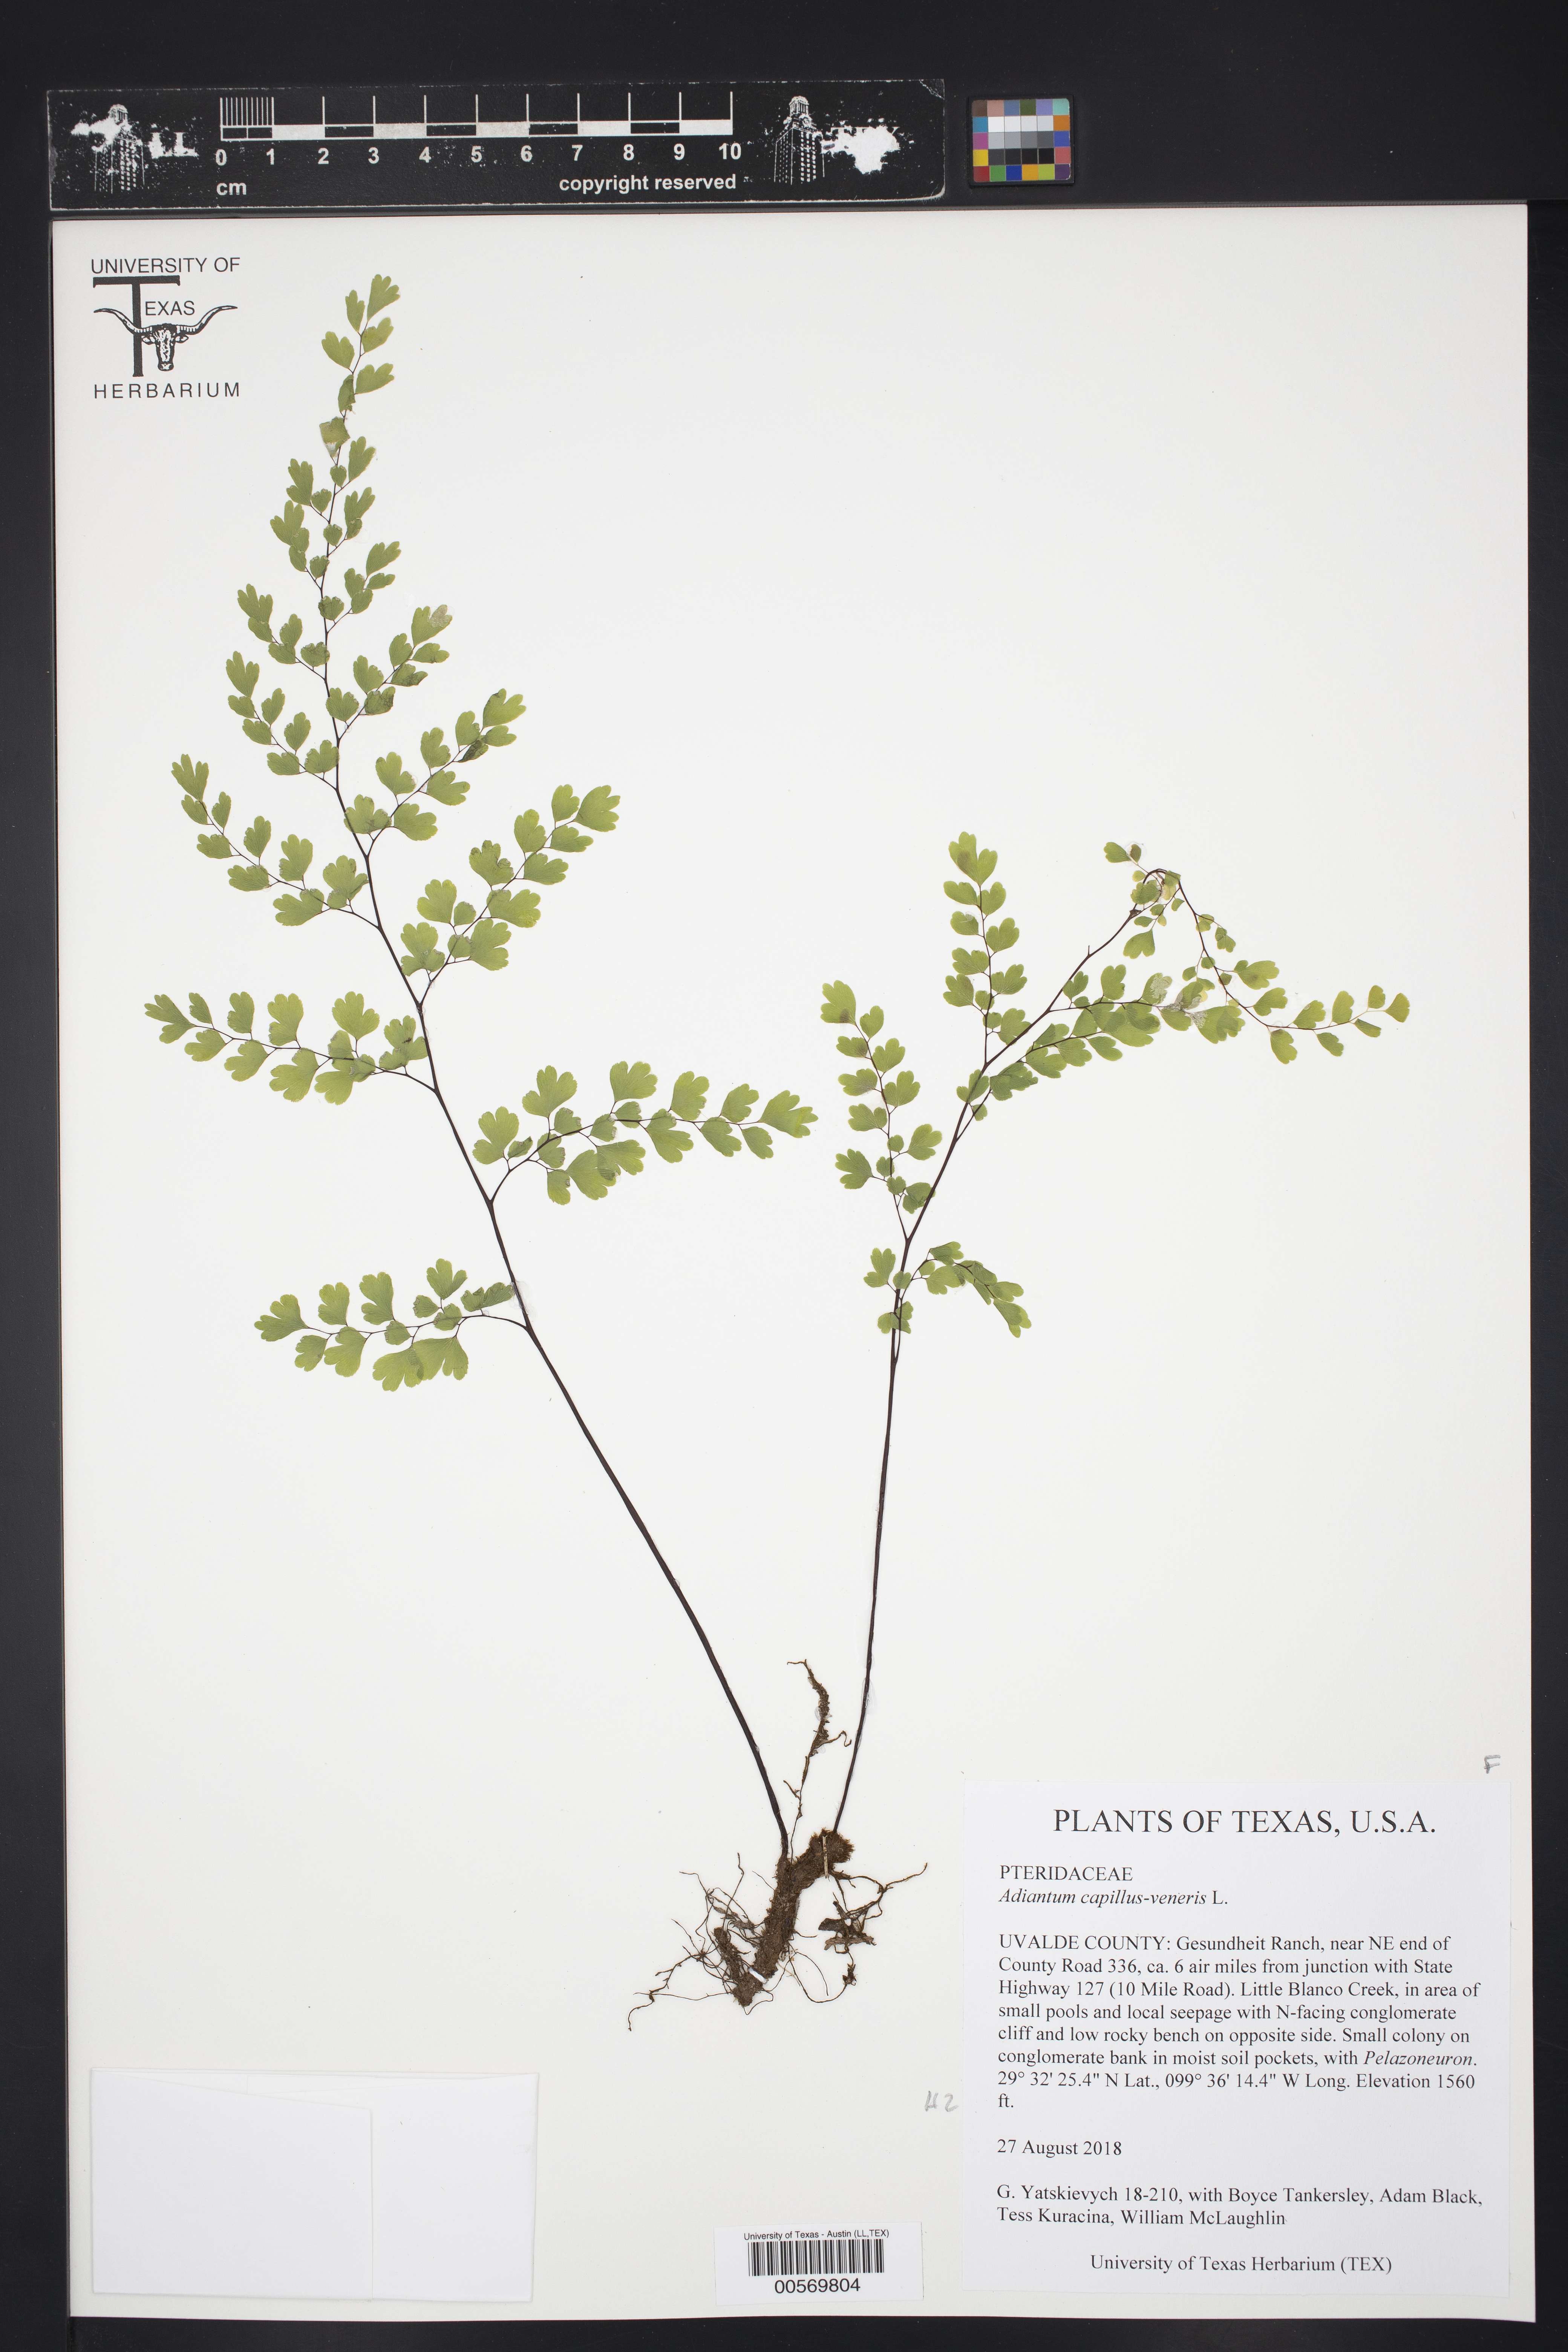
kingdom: Plantae
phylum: Tracheophyta
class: Polypodiopsida
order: Polypodiales
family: Pteridaceae
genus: Adiantum
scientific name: Adiantum capillus-veneris
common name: Maidenhair fern
